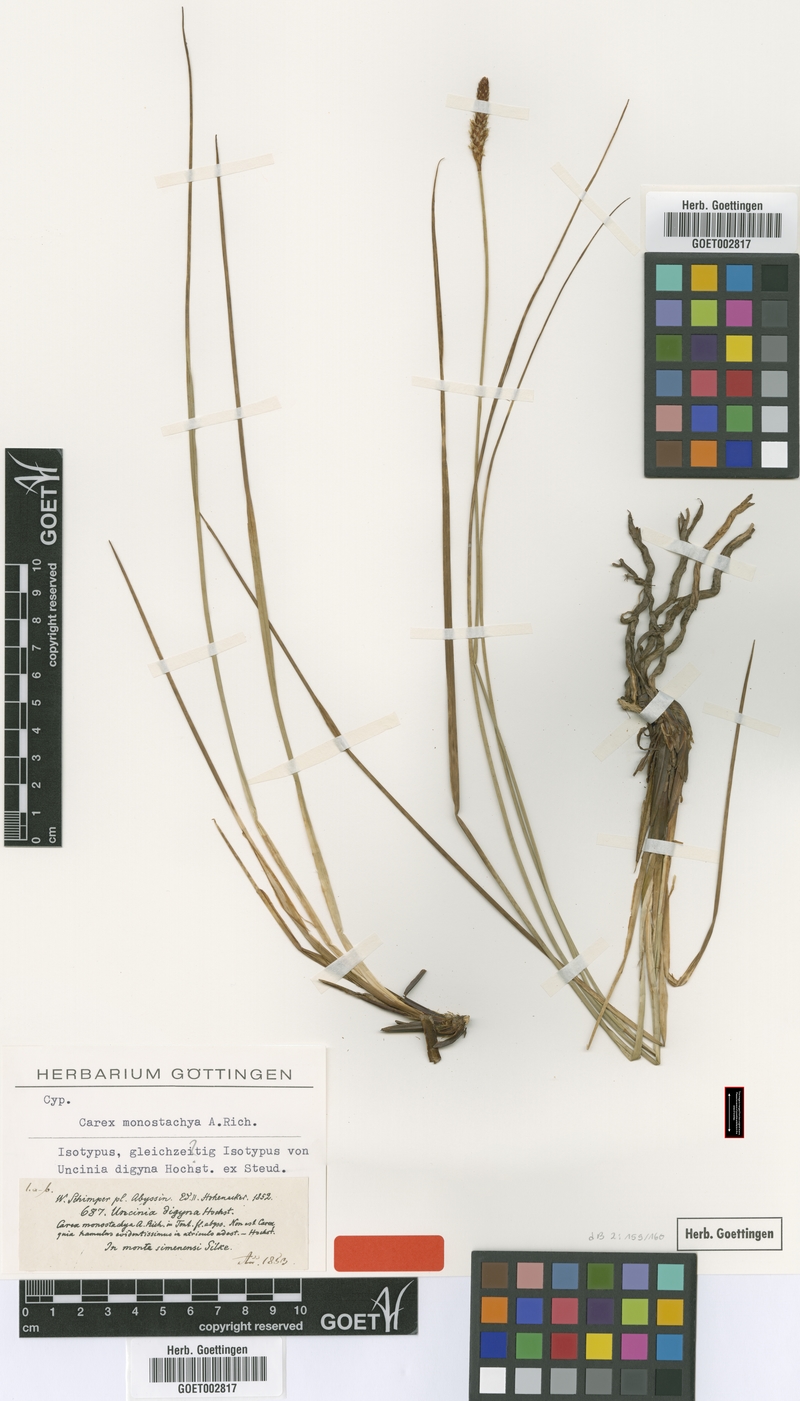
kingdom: Plantae
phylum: Tracheophyta
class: Liliopsida
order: Poales
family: Cyperaceae
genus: Carex
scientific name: Carex monostachya
